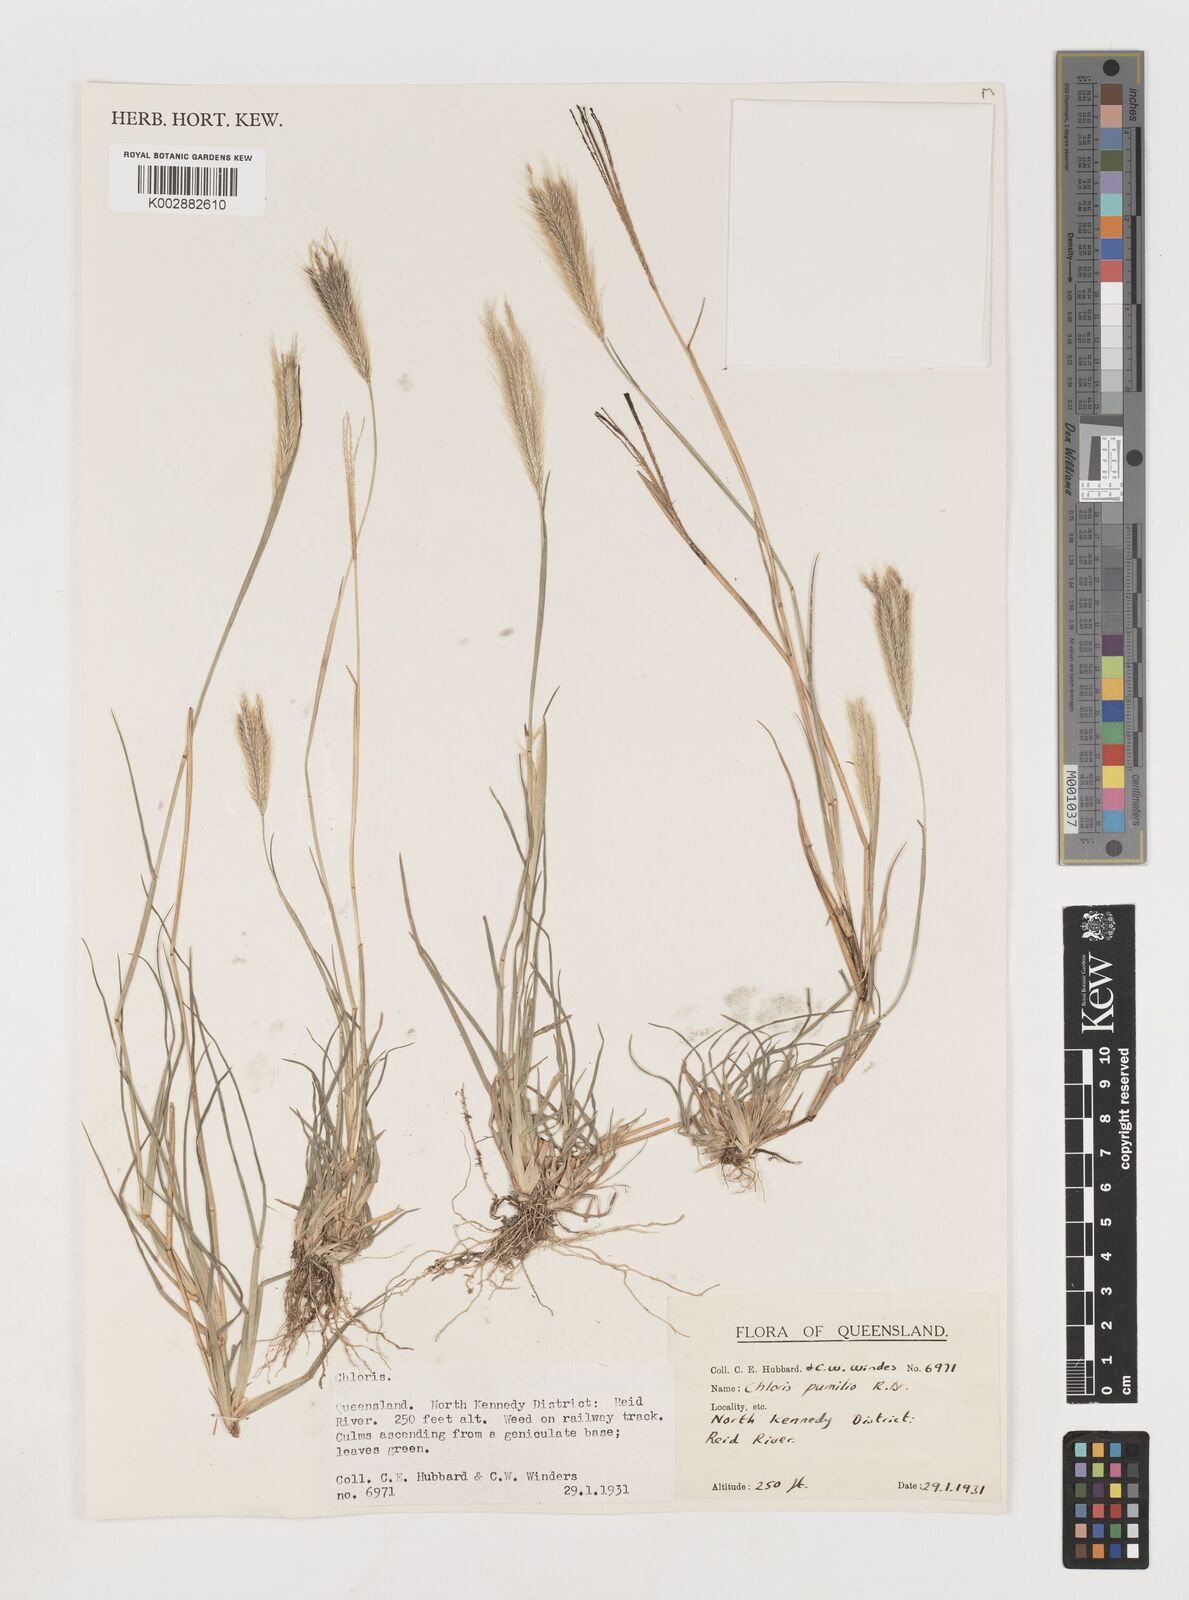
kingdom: Plantae
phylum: Tracheophyta
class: Liliopsida
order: Poales
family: Poaceae
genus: Chloris
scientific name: Chloris pumilio
